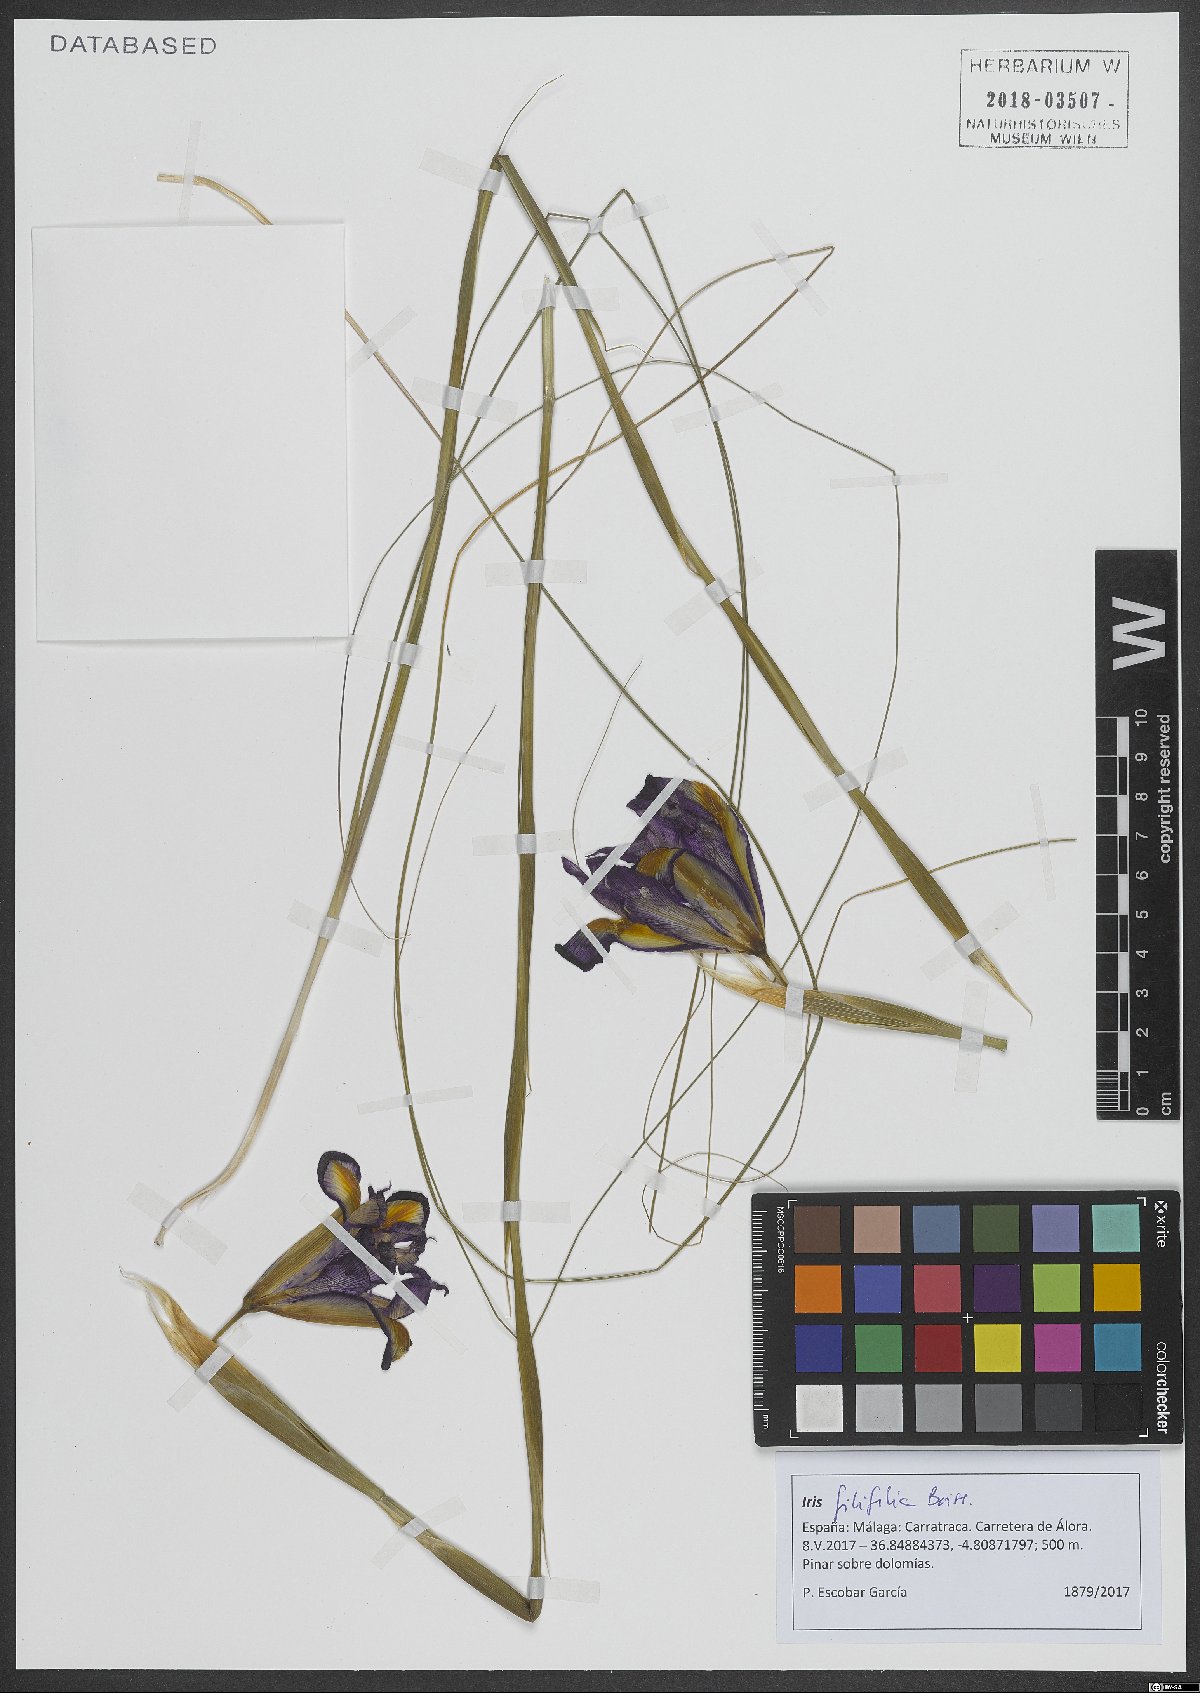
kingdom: Plantae
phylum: Tracheophyta
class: Liliopsida
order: Asparagales
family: Iridaceae
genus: Iris
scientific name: Iris longiscapa
